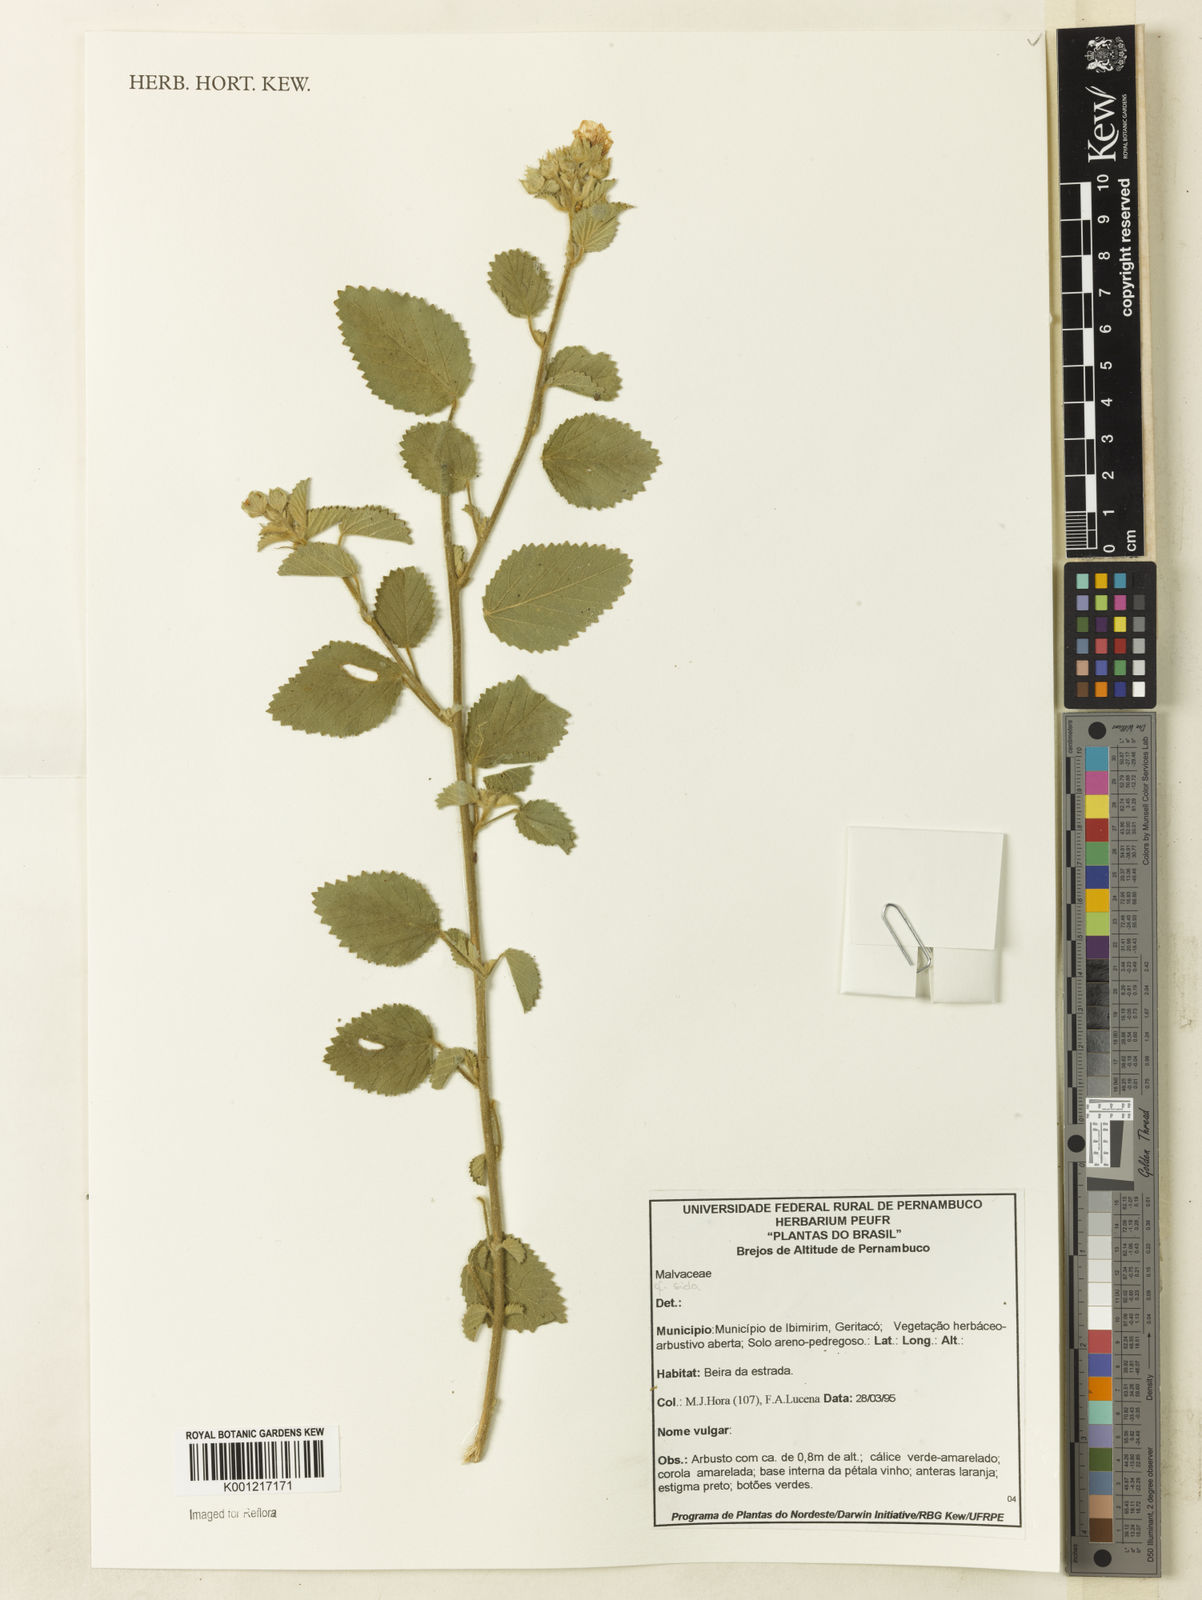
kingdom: Plantae
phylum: Tracheophyta
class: Magnoliopsida
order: Malvales
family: Malvaceae
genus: Sida
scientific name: Sida
